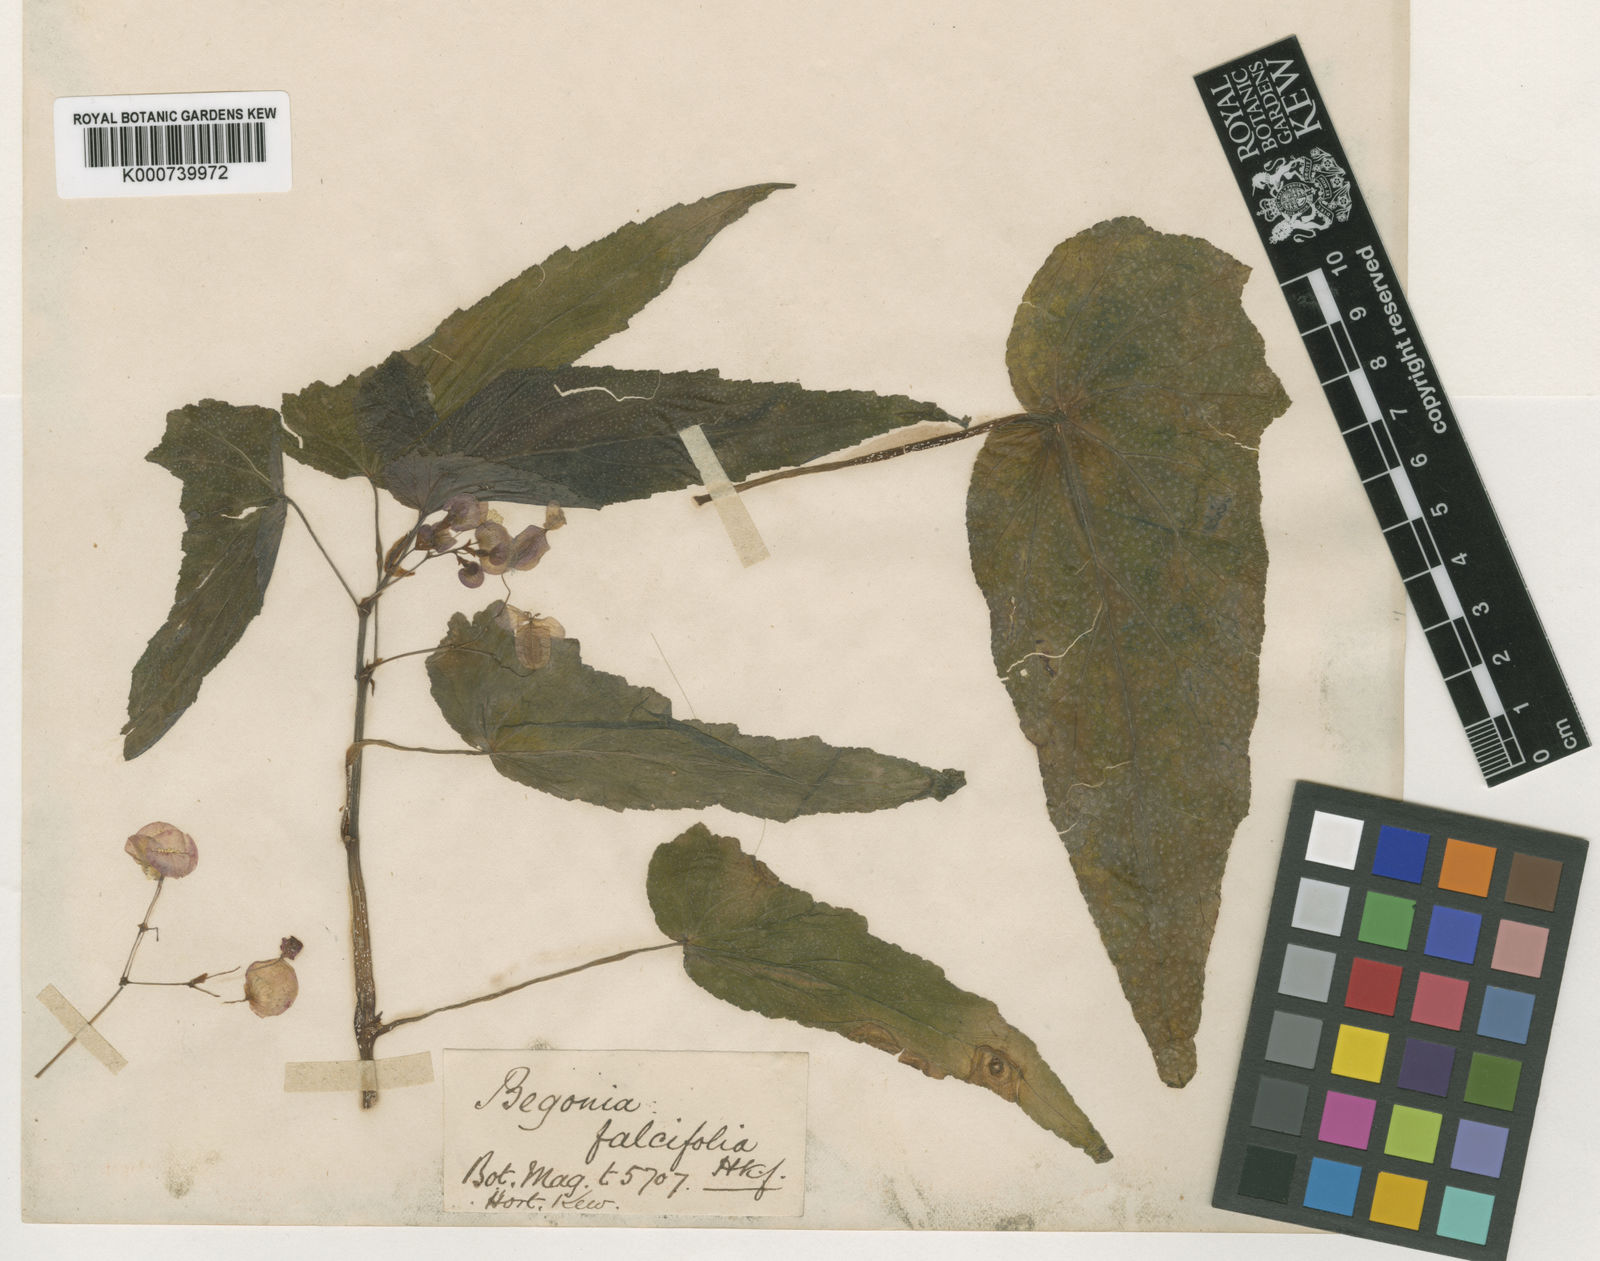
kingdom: Plantae
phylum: Tracheophyta
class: Magnoliopsida
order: Cucurbitales
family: Begoniaceae
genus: Begonia
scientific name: Begonia falcifolia
